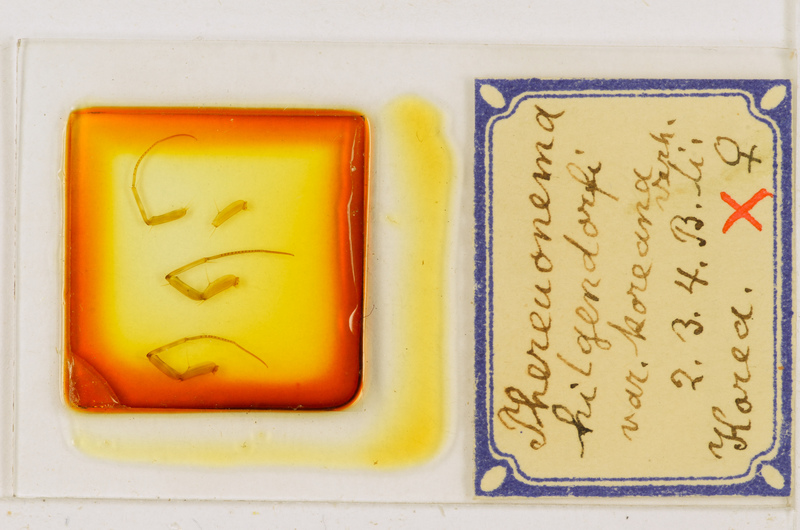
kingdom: Animalia
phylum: Arthropoda
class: Chilopoda
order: Scutigeromorpha
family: Scutigeridae
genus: Thereuonema
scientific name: Thereuonema tuberculata
